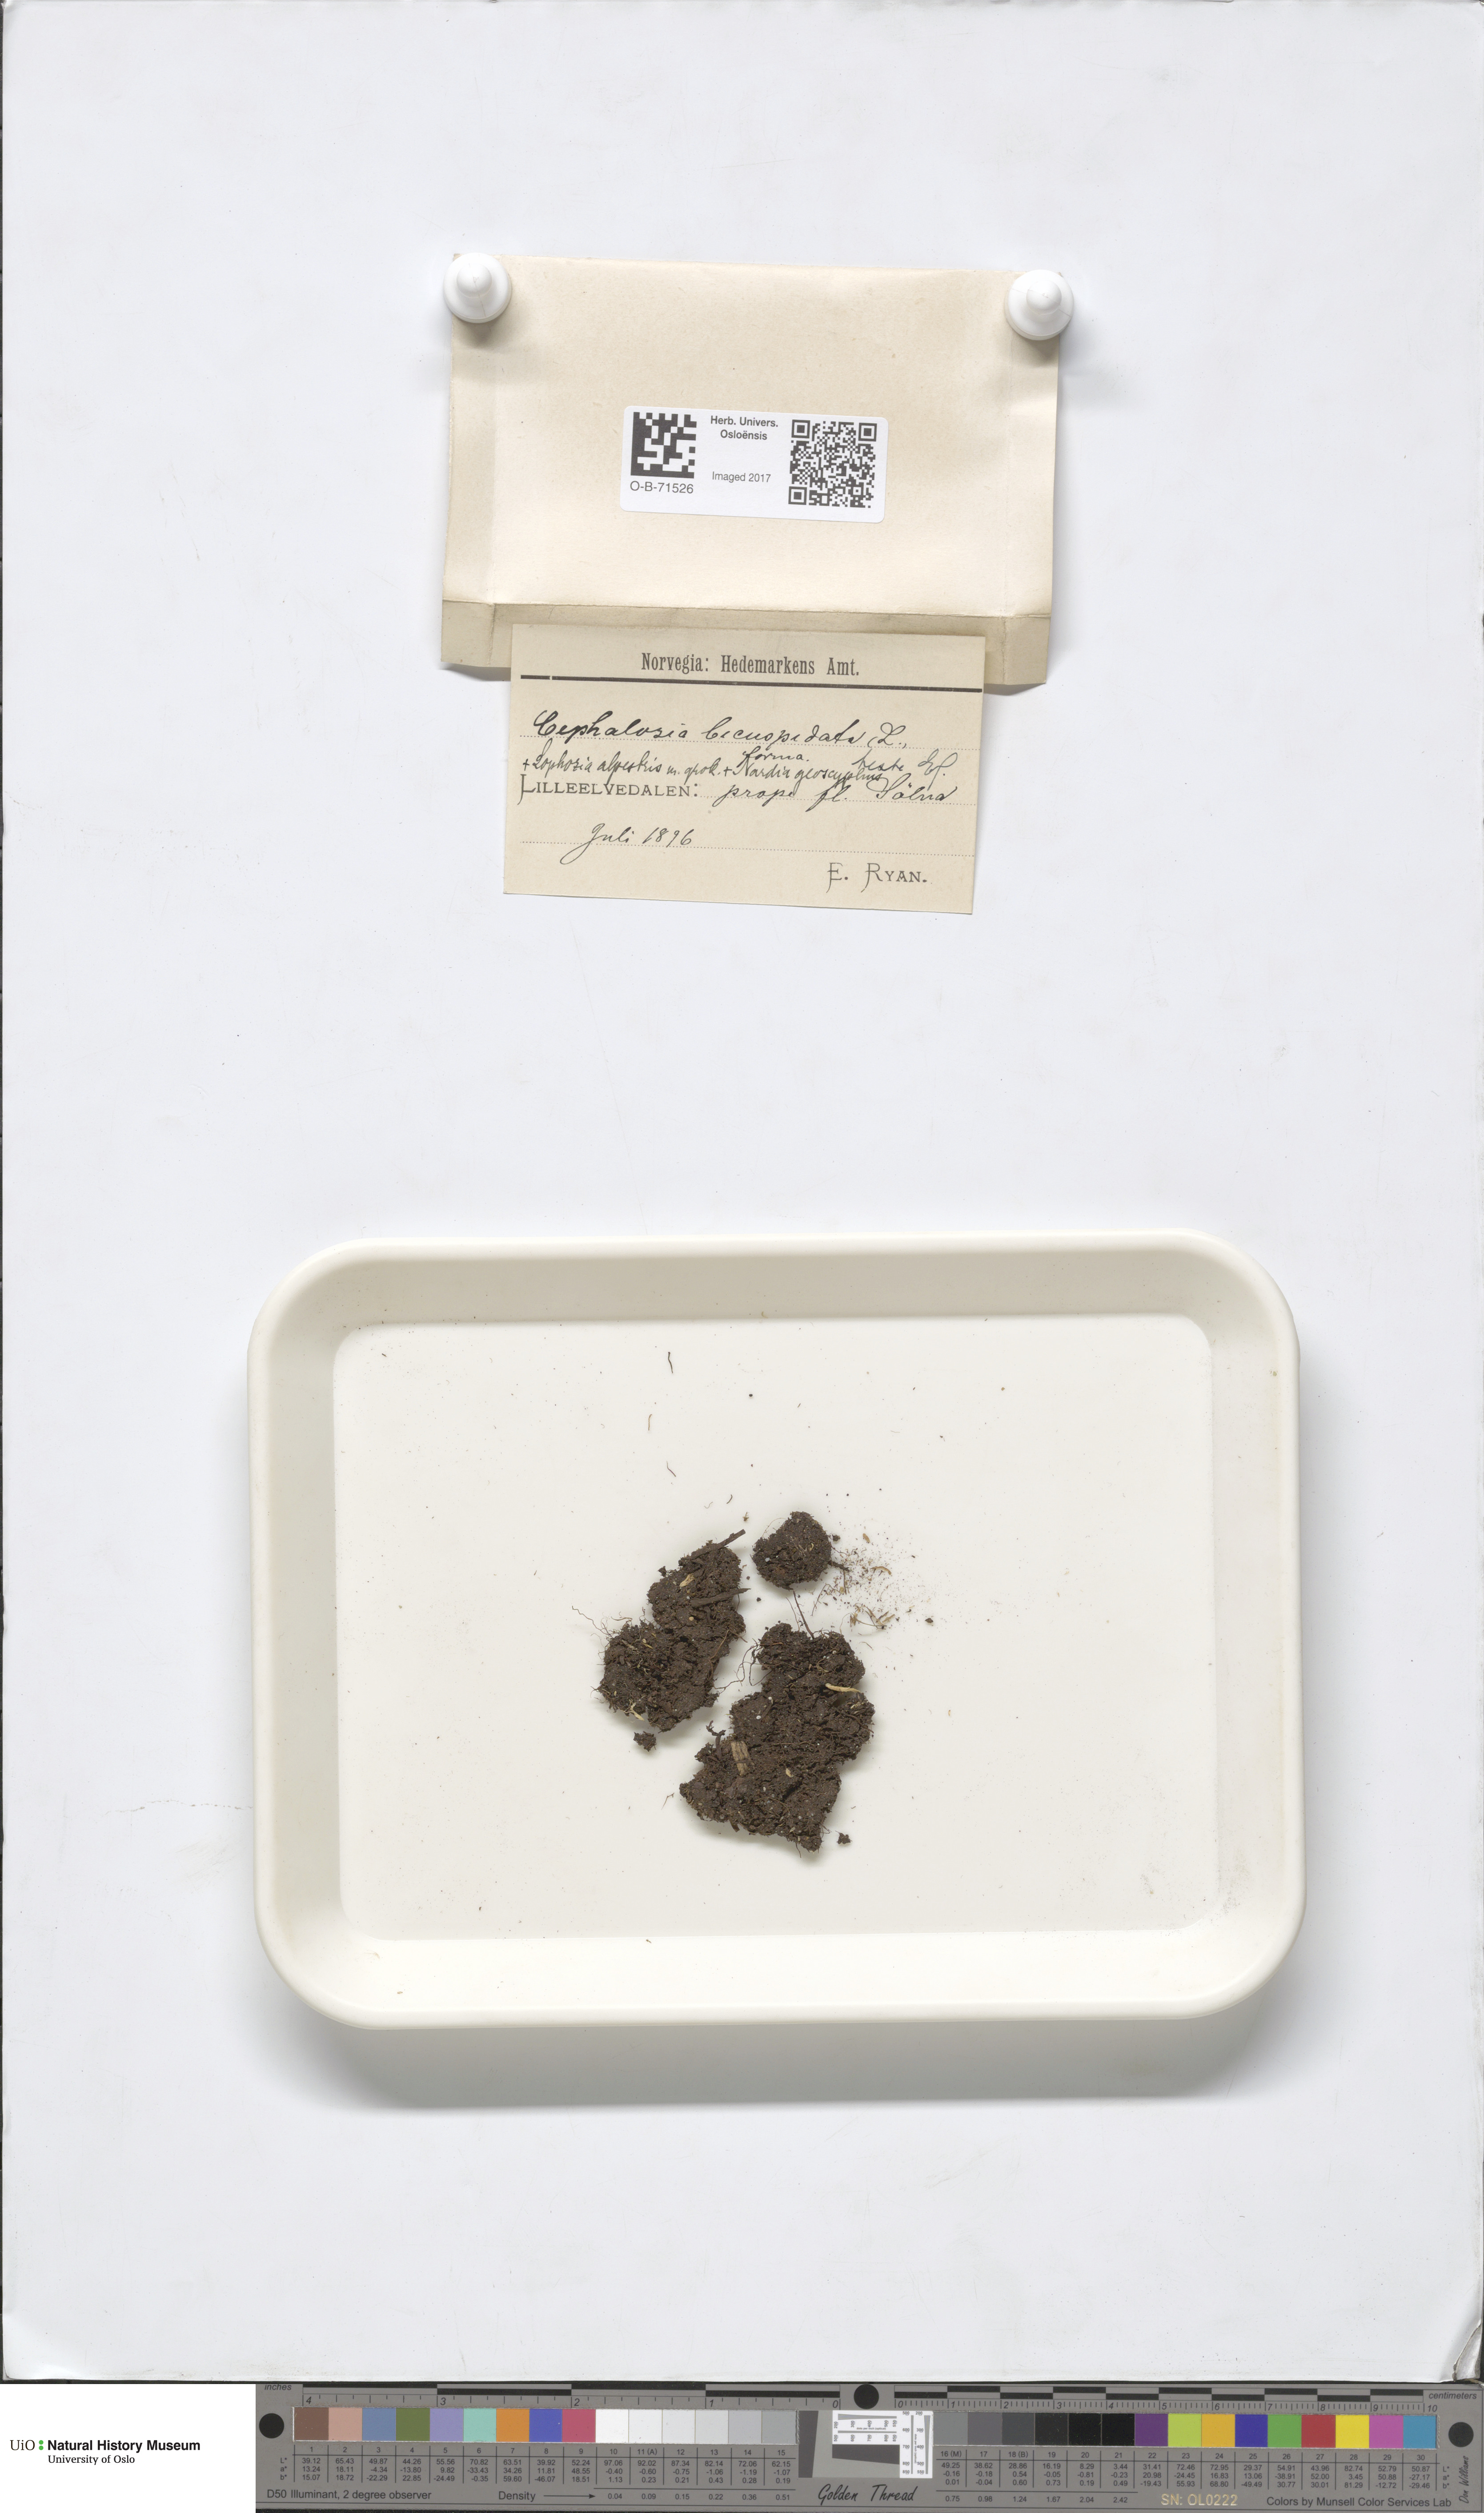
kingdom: Plantae
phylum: Marchantiophyta
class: Jungermanniopsida
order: Jungermanniales
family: Cephaloziaceae
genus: Cephalozia
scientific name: Cephalozia bicuspidata
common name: Two-horned pincerwort
